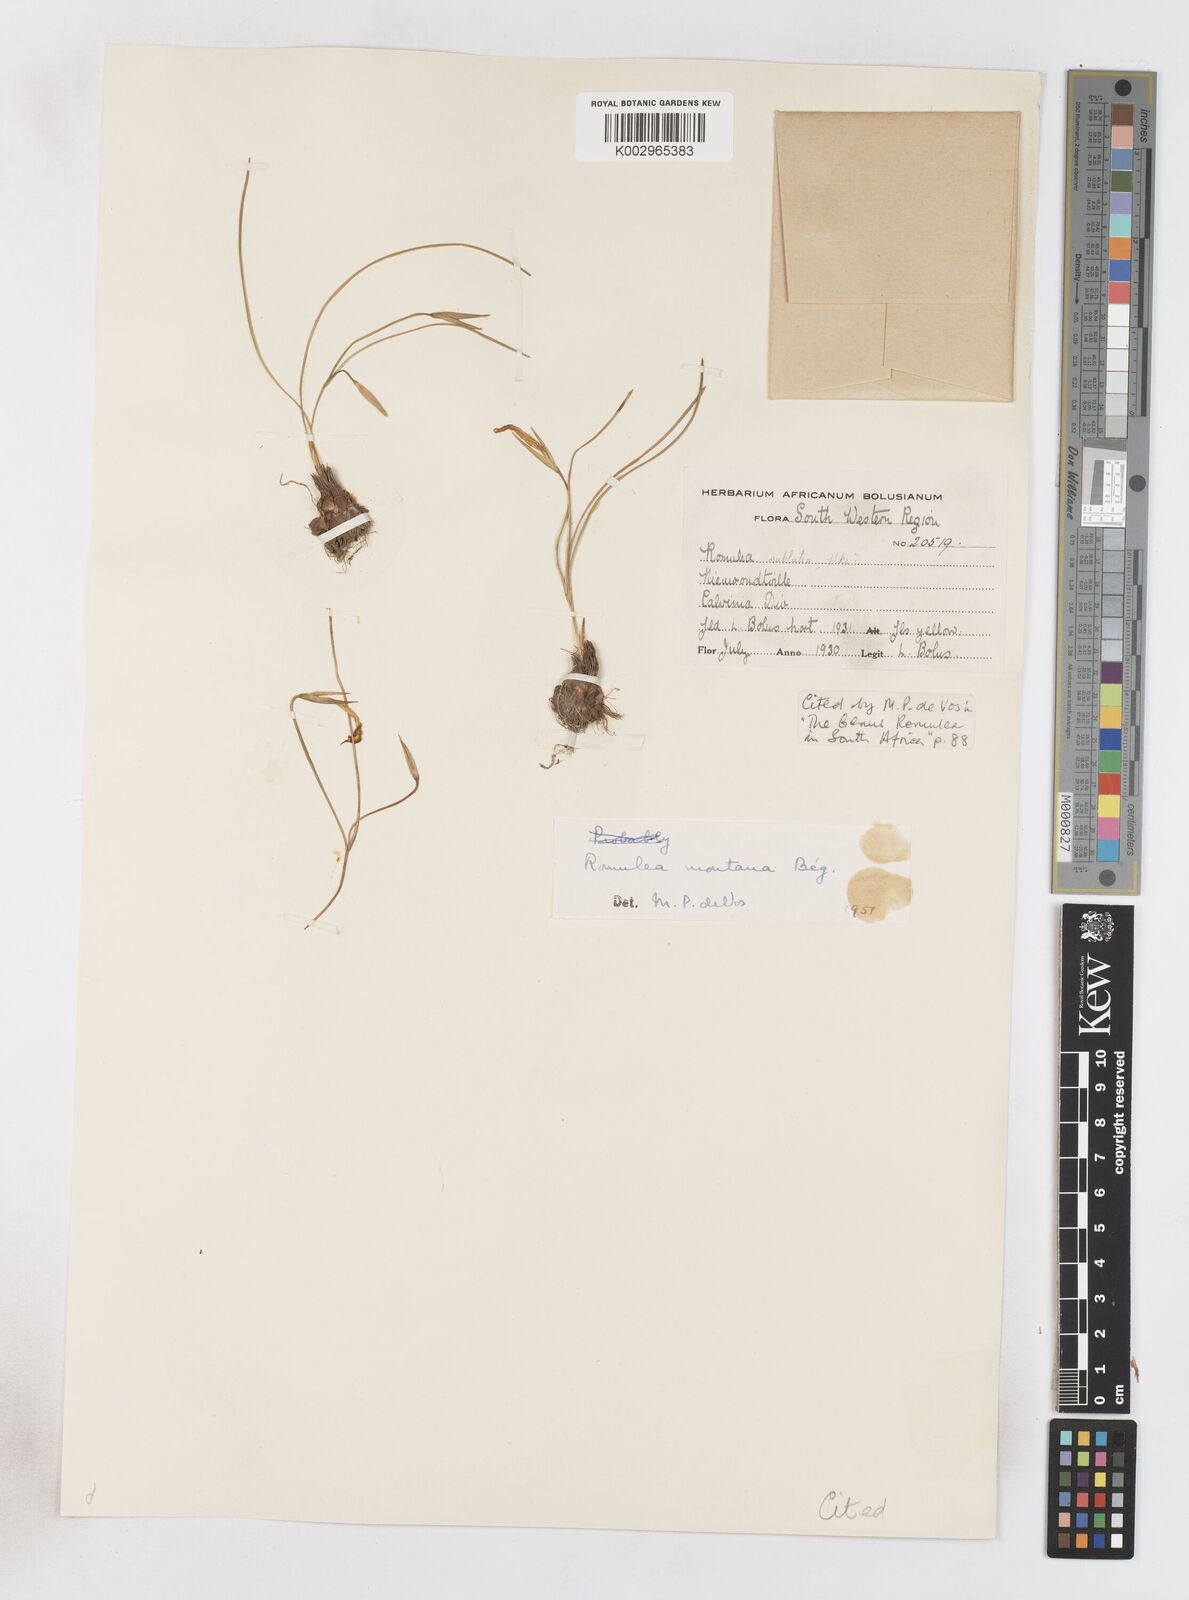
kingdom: Plantae
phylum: Tracheophyta
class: Liliopsida
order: Asparagales
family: Iridaceae
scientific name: Iridaceae
